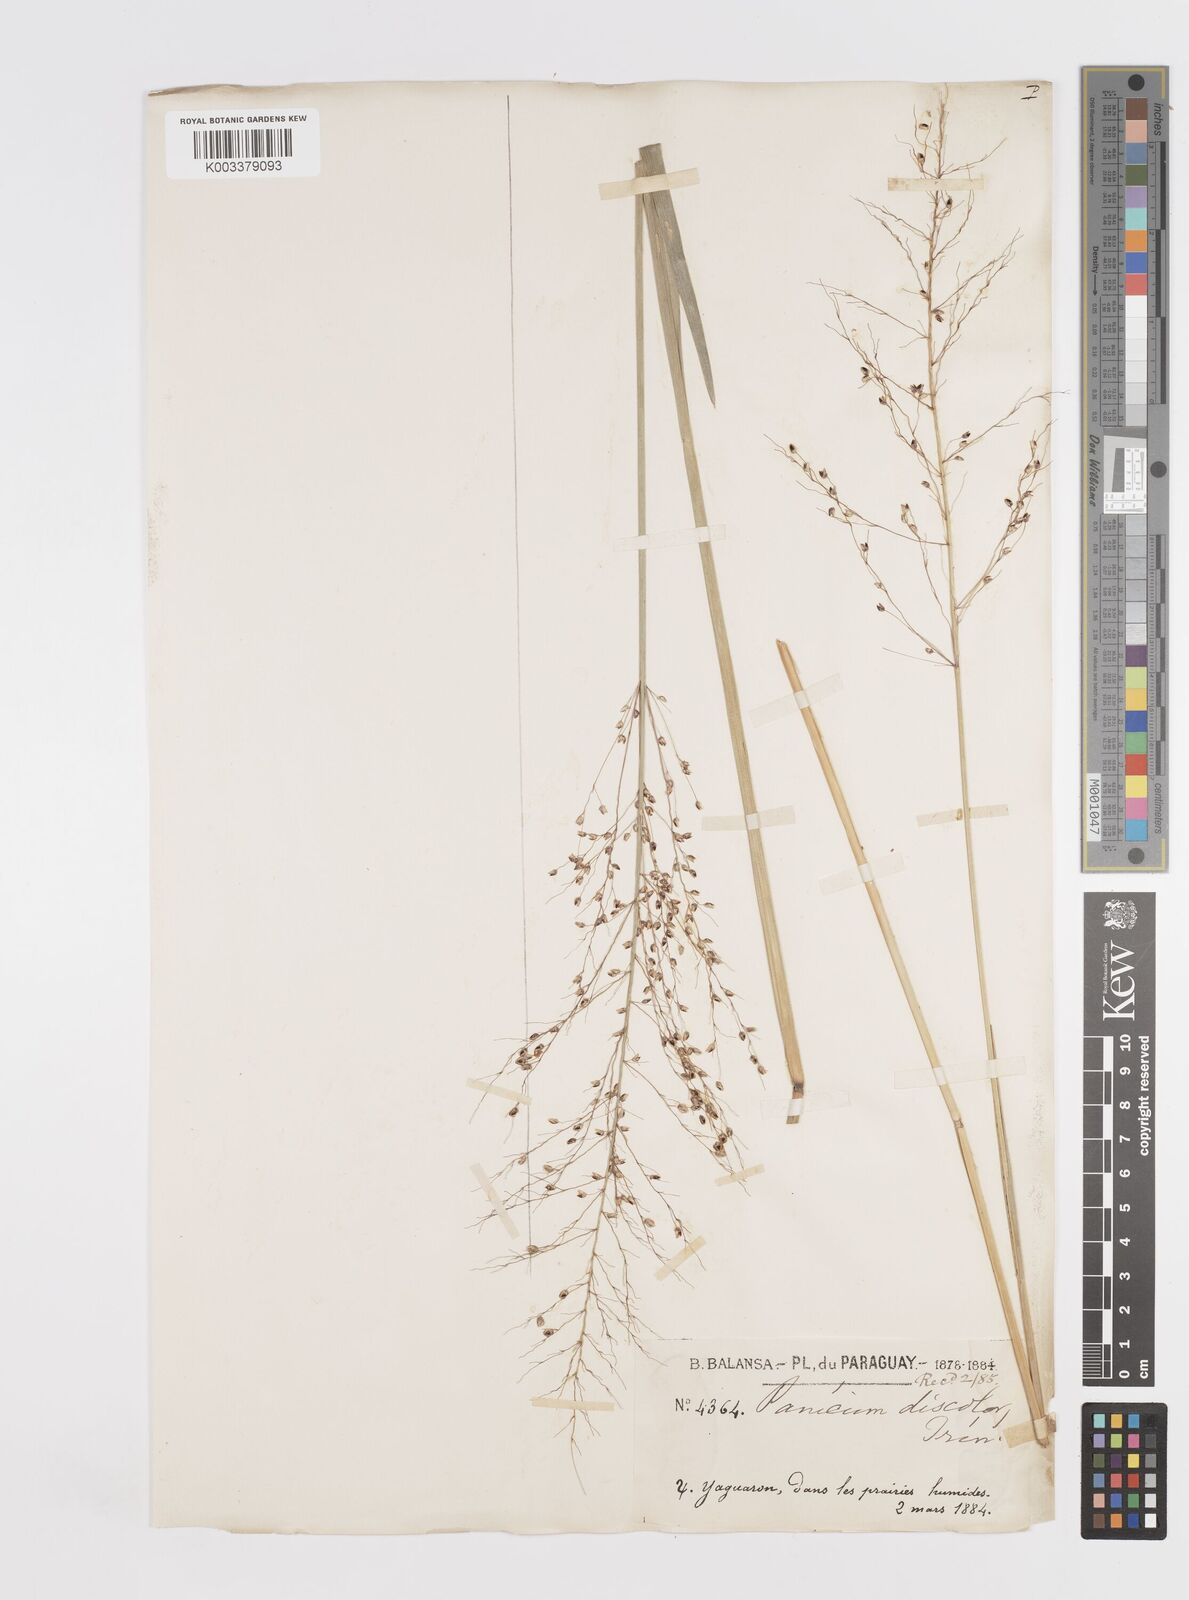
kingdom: Plantae
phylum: Tracheophyta
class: Liliopsida
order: Poales
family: Poaceae
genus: Otachyrium
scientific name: Otachyrium versicolor
